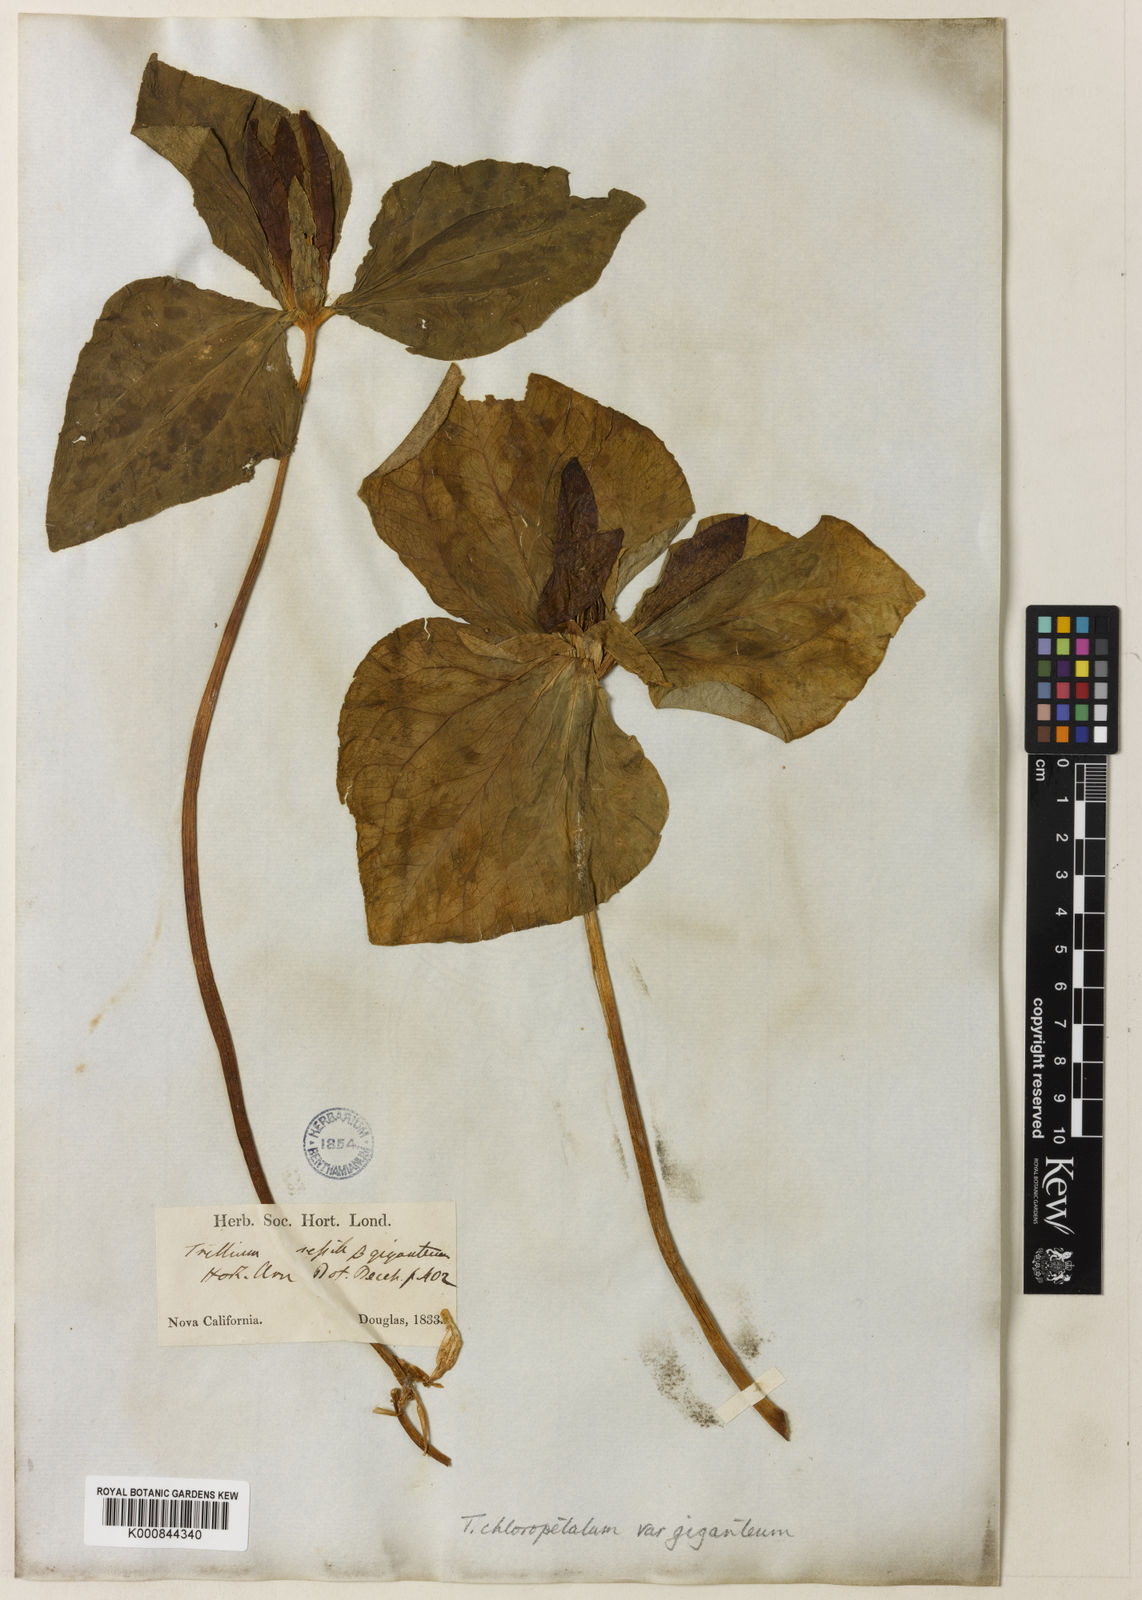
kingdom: Plantae
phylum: Tracheophyta
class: Liliopsida
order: Liliales
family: Melanthiaceae
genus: Trillium
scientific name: Trillium chloropetalum
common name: Giant trillium
